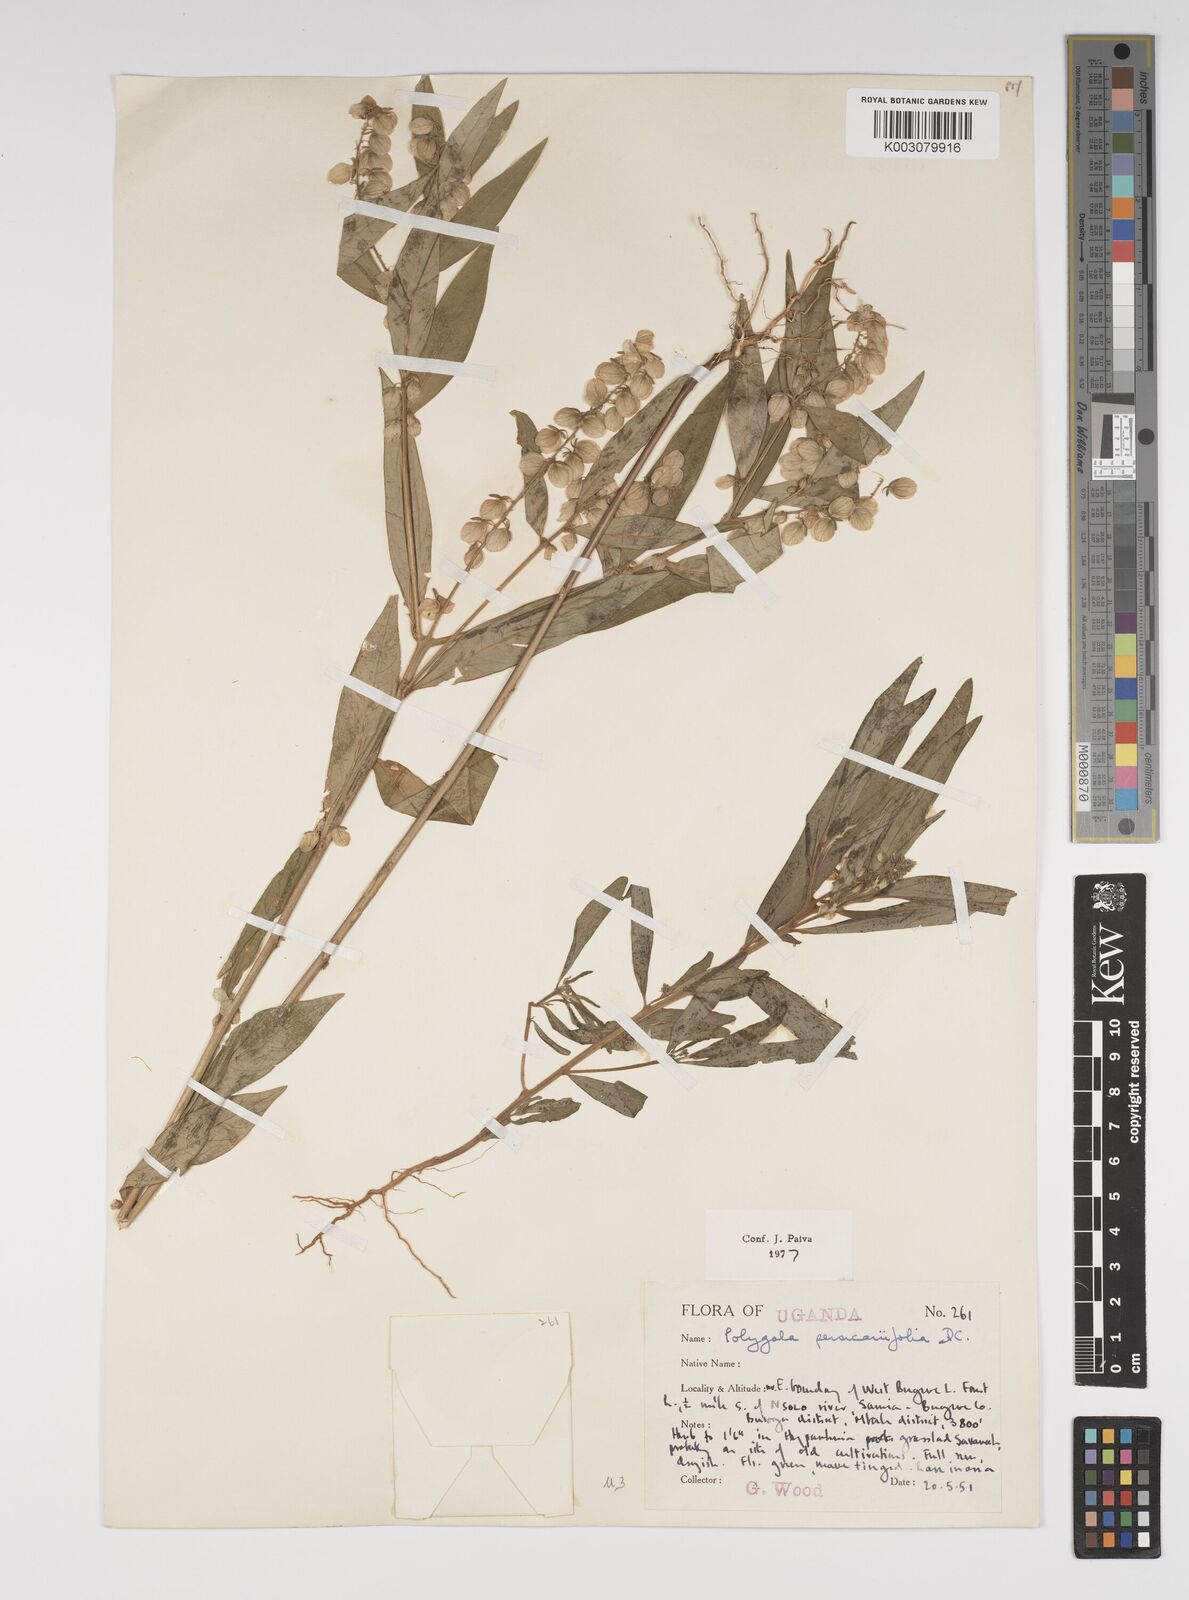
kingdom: Plantae
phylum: Tracheophyta
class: Magnoliopsida
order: Fabales
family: Polygalaceae
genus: Polygala
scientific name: Polygala persicariifolia
